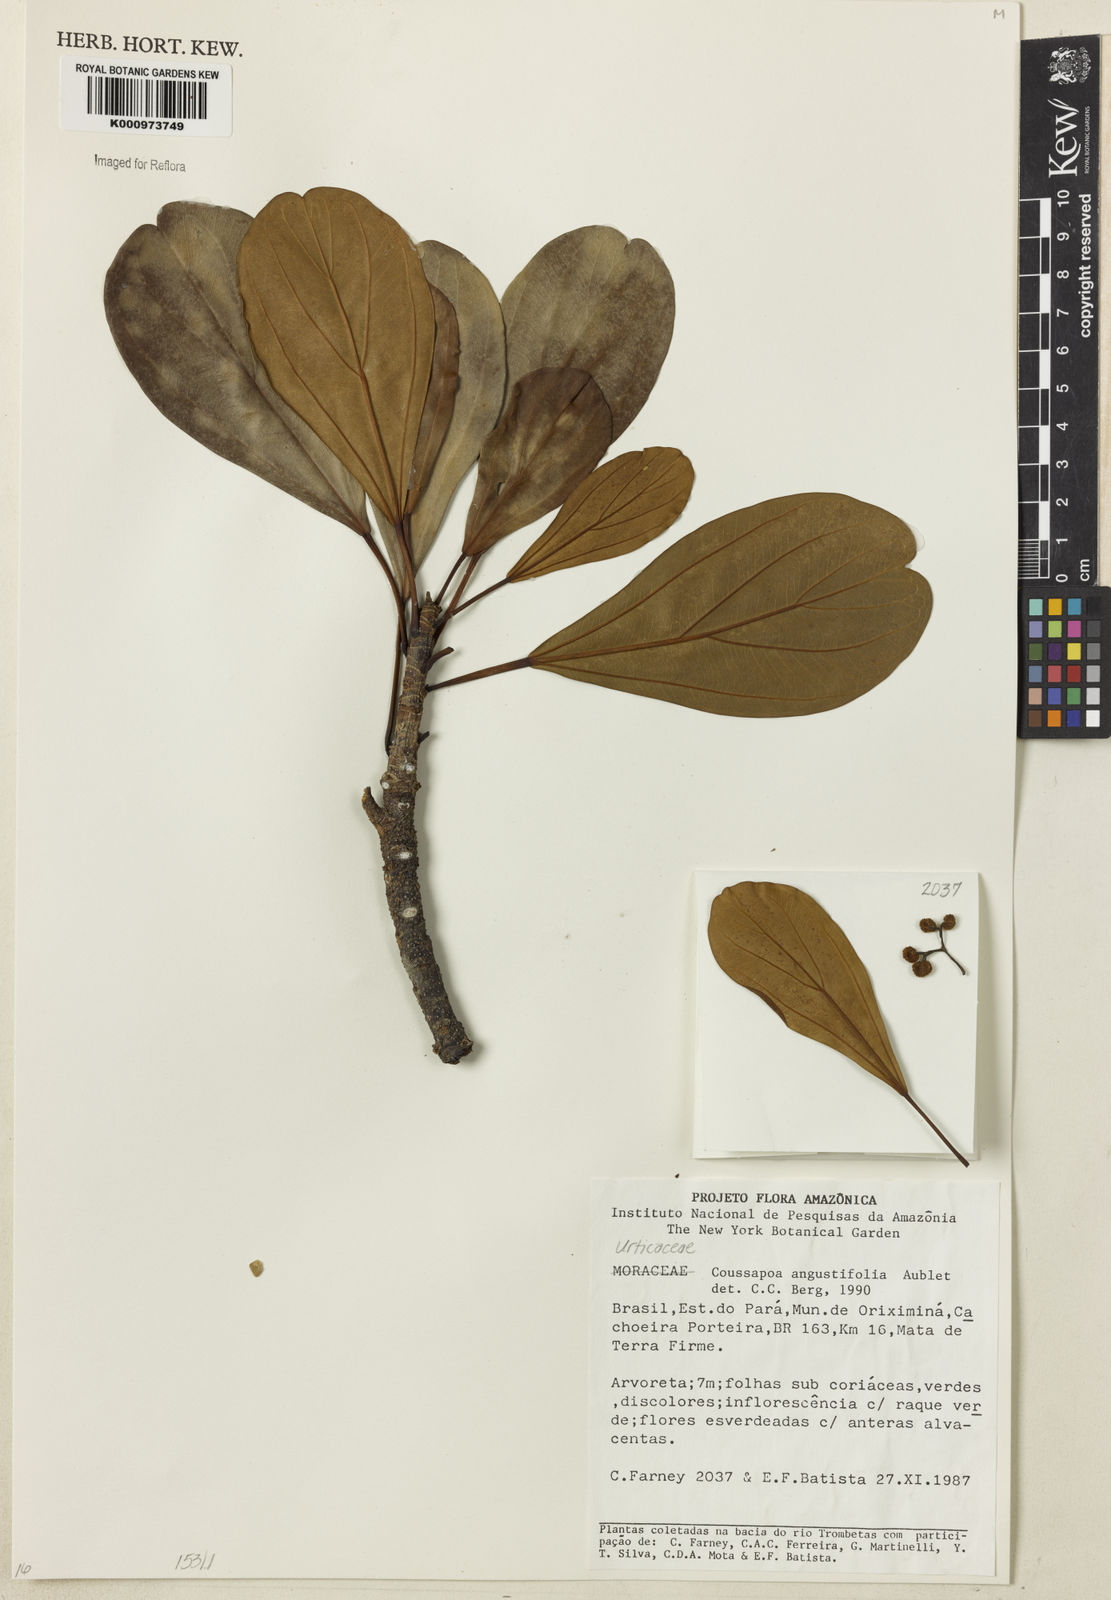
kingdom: Plantae
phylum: Tracheophyta
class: Magnoliopsida
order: Rosales
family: Urticaceae
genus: Coussapoa
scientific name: Coussapoa
